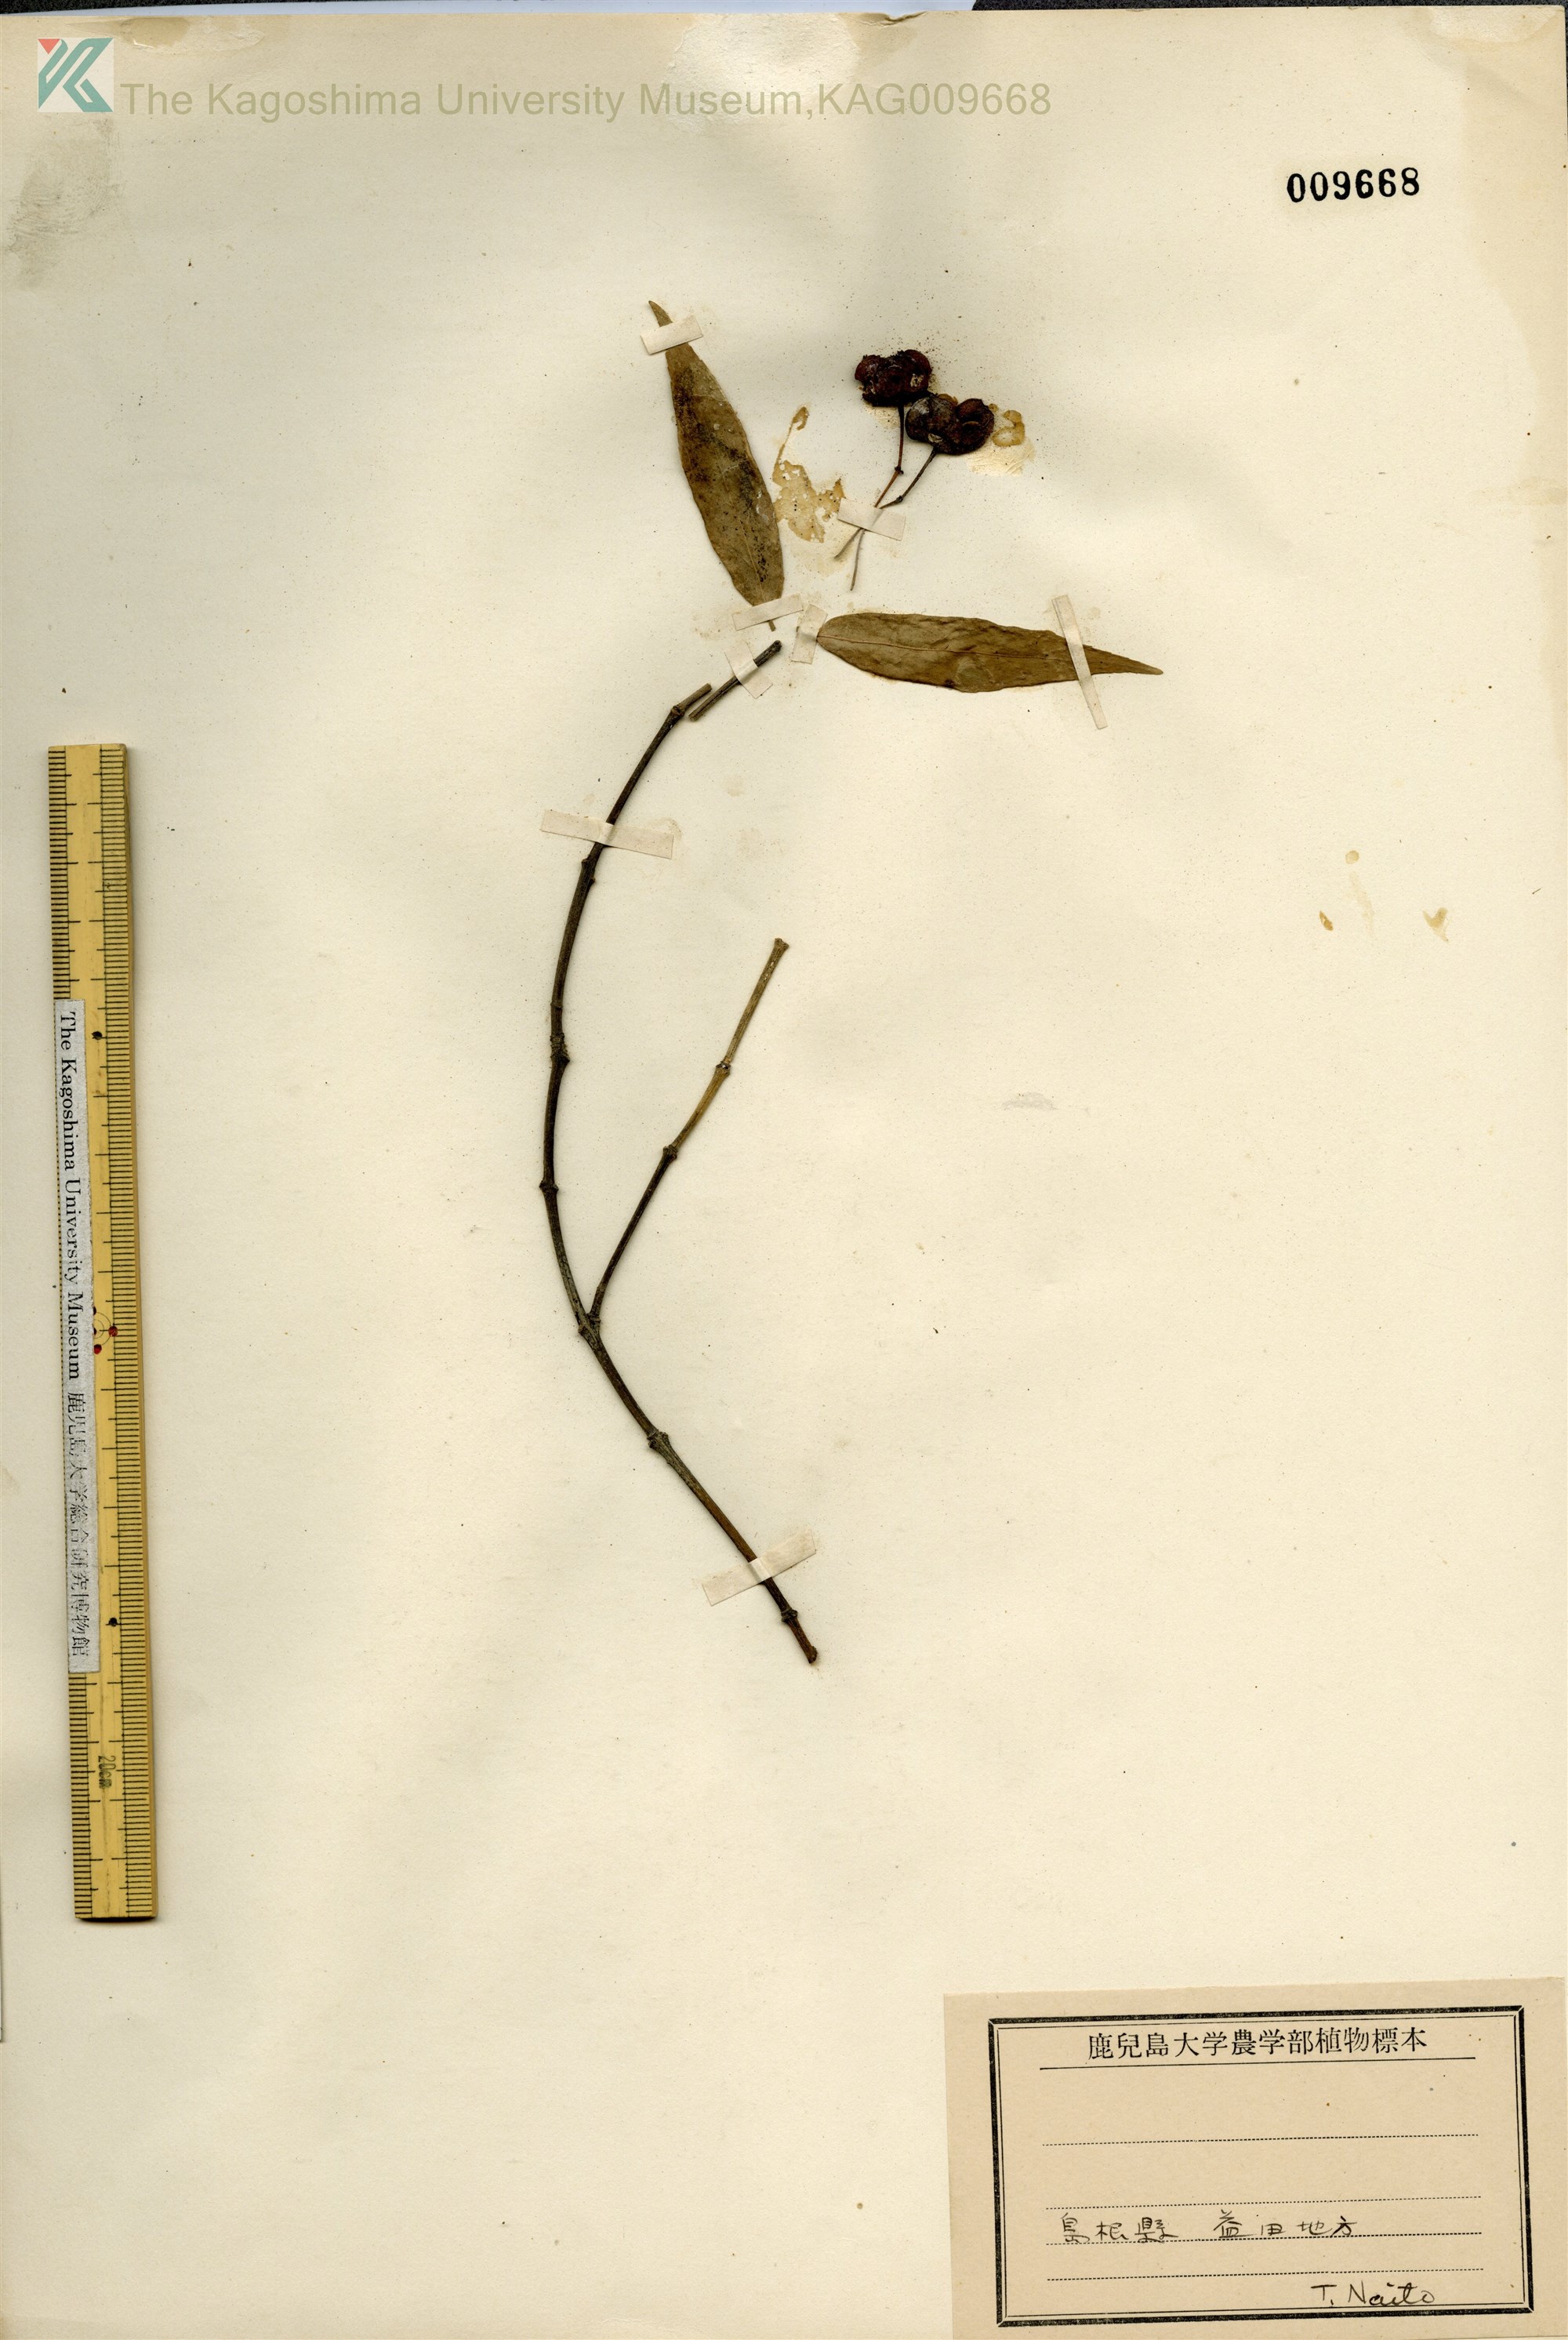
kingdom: Plantae
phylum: Tracheophyta
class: Magnoliopsida
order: Celastrales
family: Celastraceae
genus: Euonymus
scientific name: Euonymus
